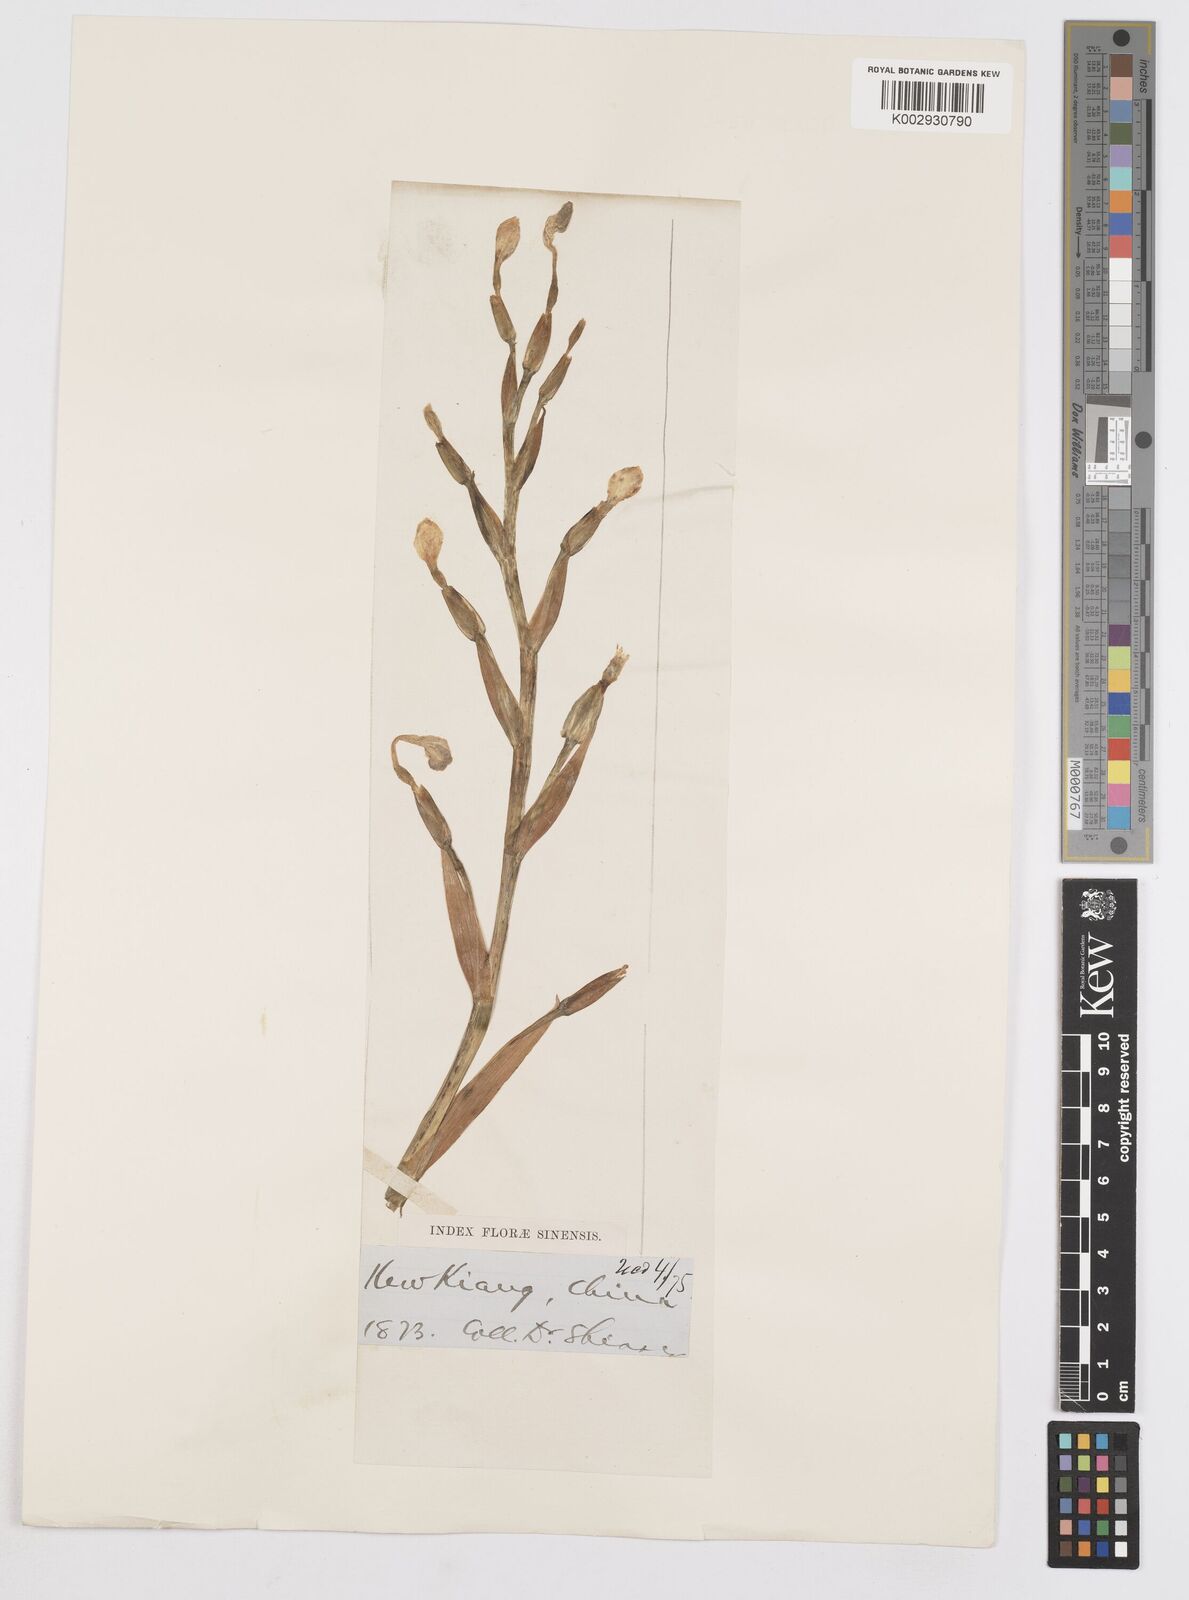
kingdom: Plantae
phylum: Tracheophyta
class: Liliopsida
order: Asparagales
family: Iridaceae
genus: Iris
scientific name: Iris japonica
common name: Butterfly-flower
